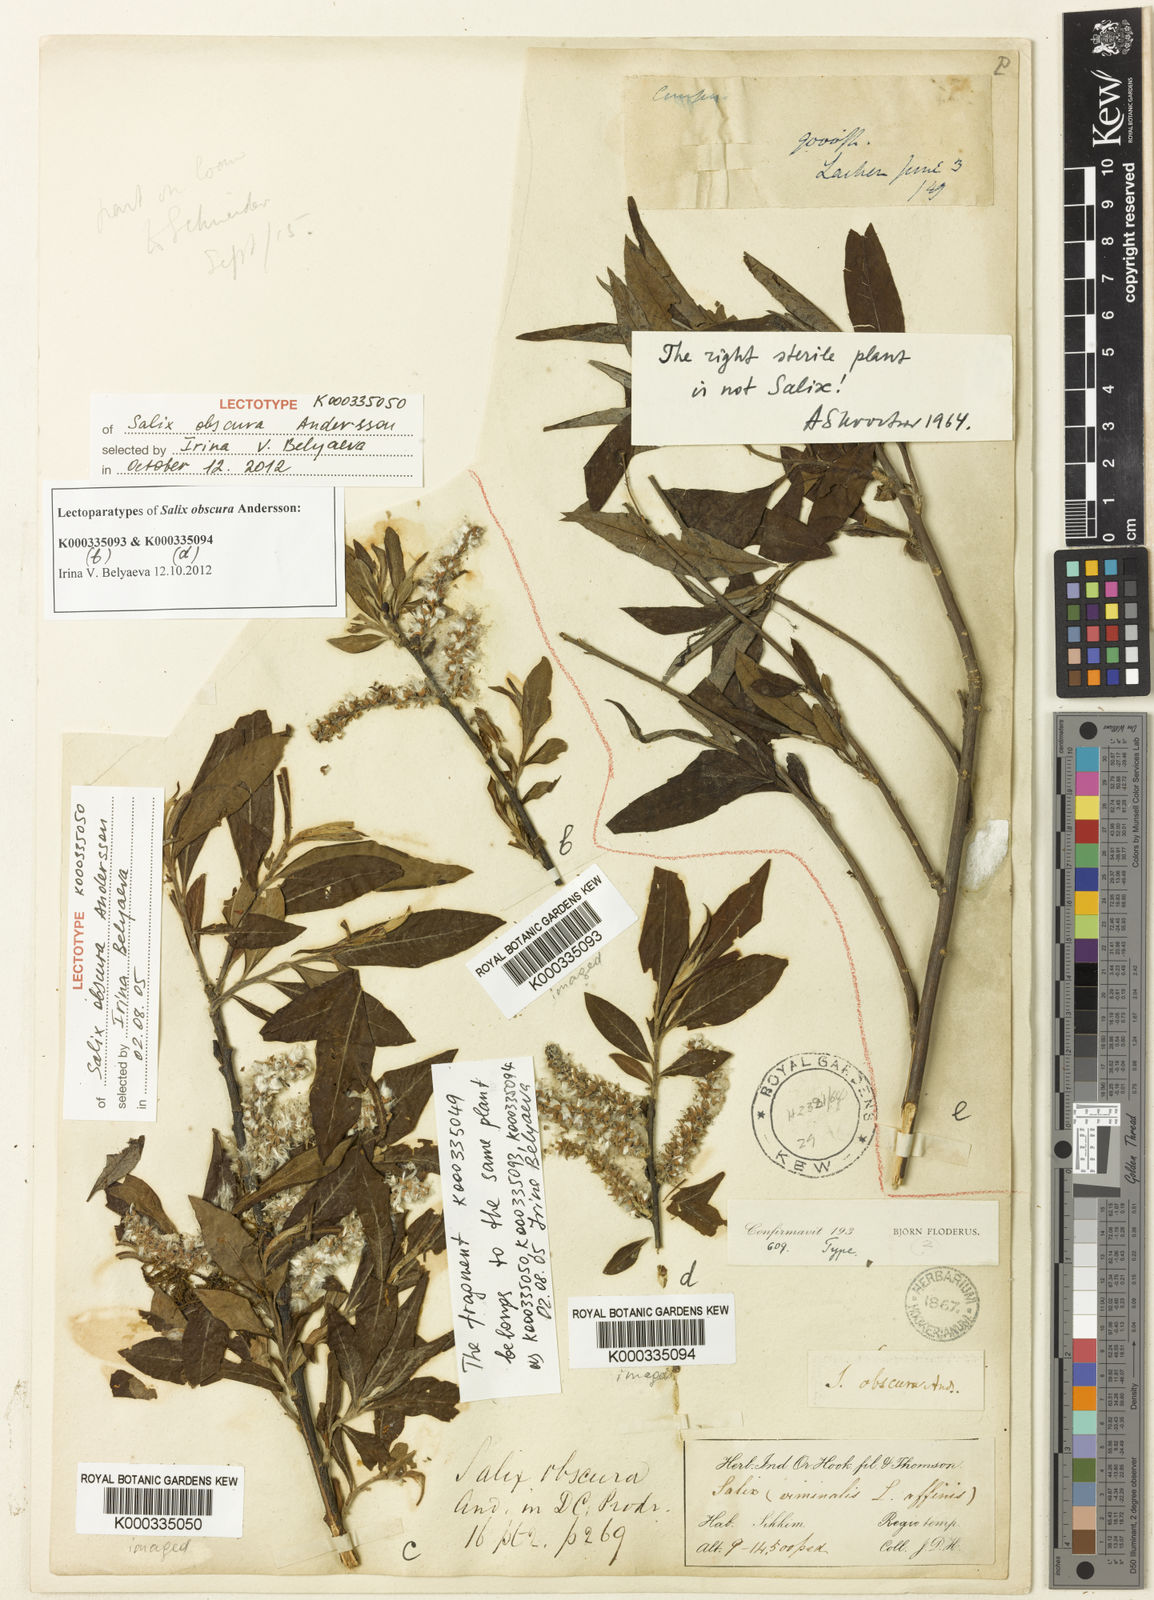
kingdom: Plantae
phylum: Tracheophyta
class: Magnoliopsida
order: Malpighiales
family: Salicaceae
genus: Salix
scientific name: Salix obscura
